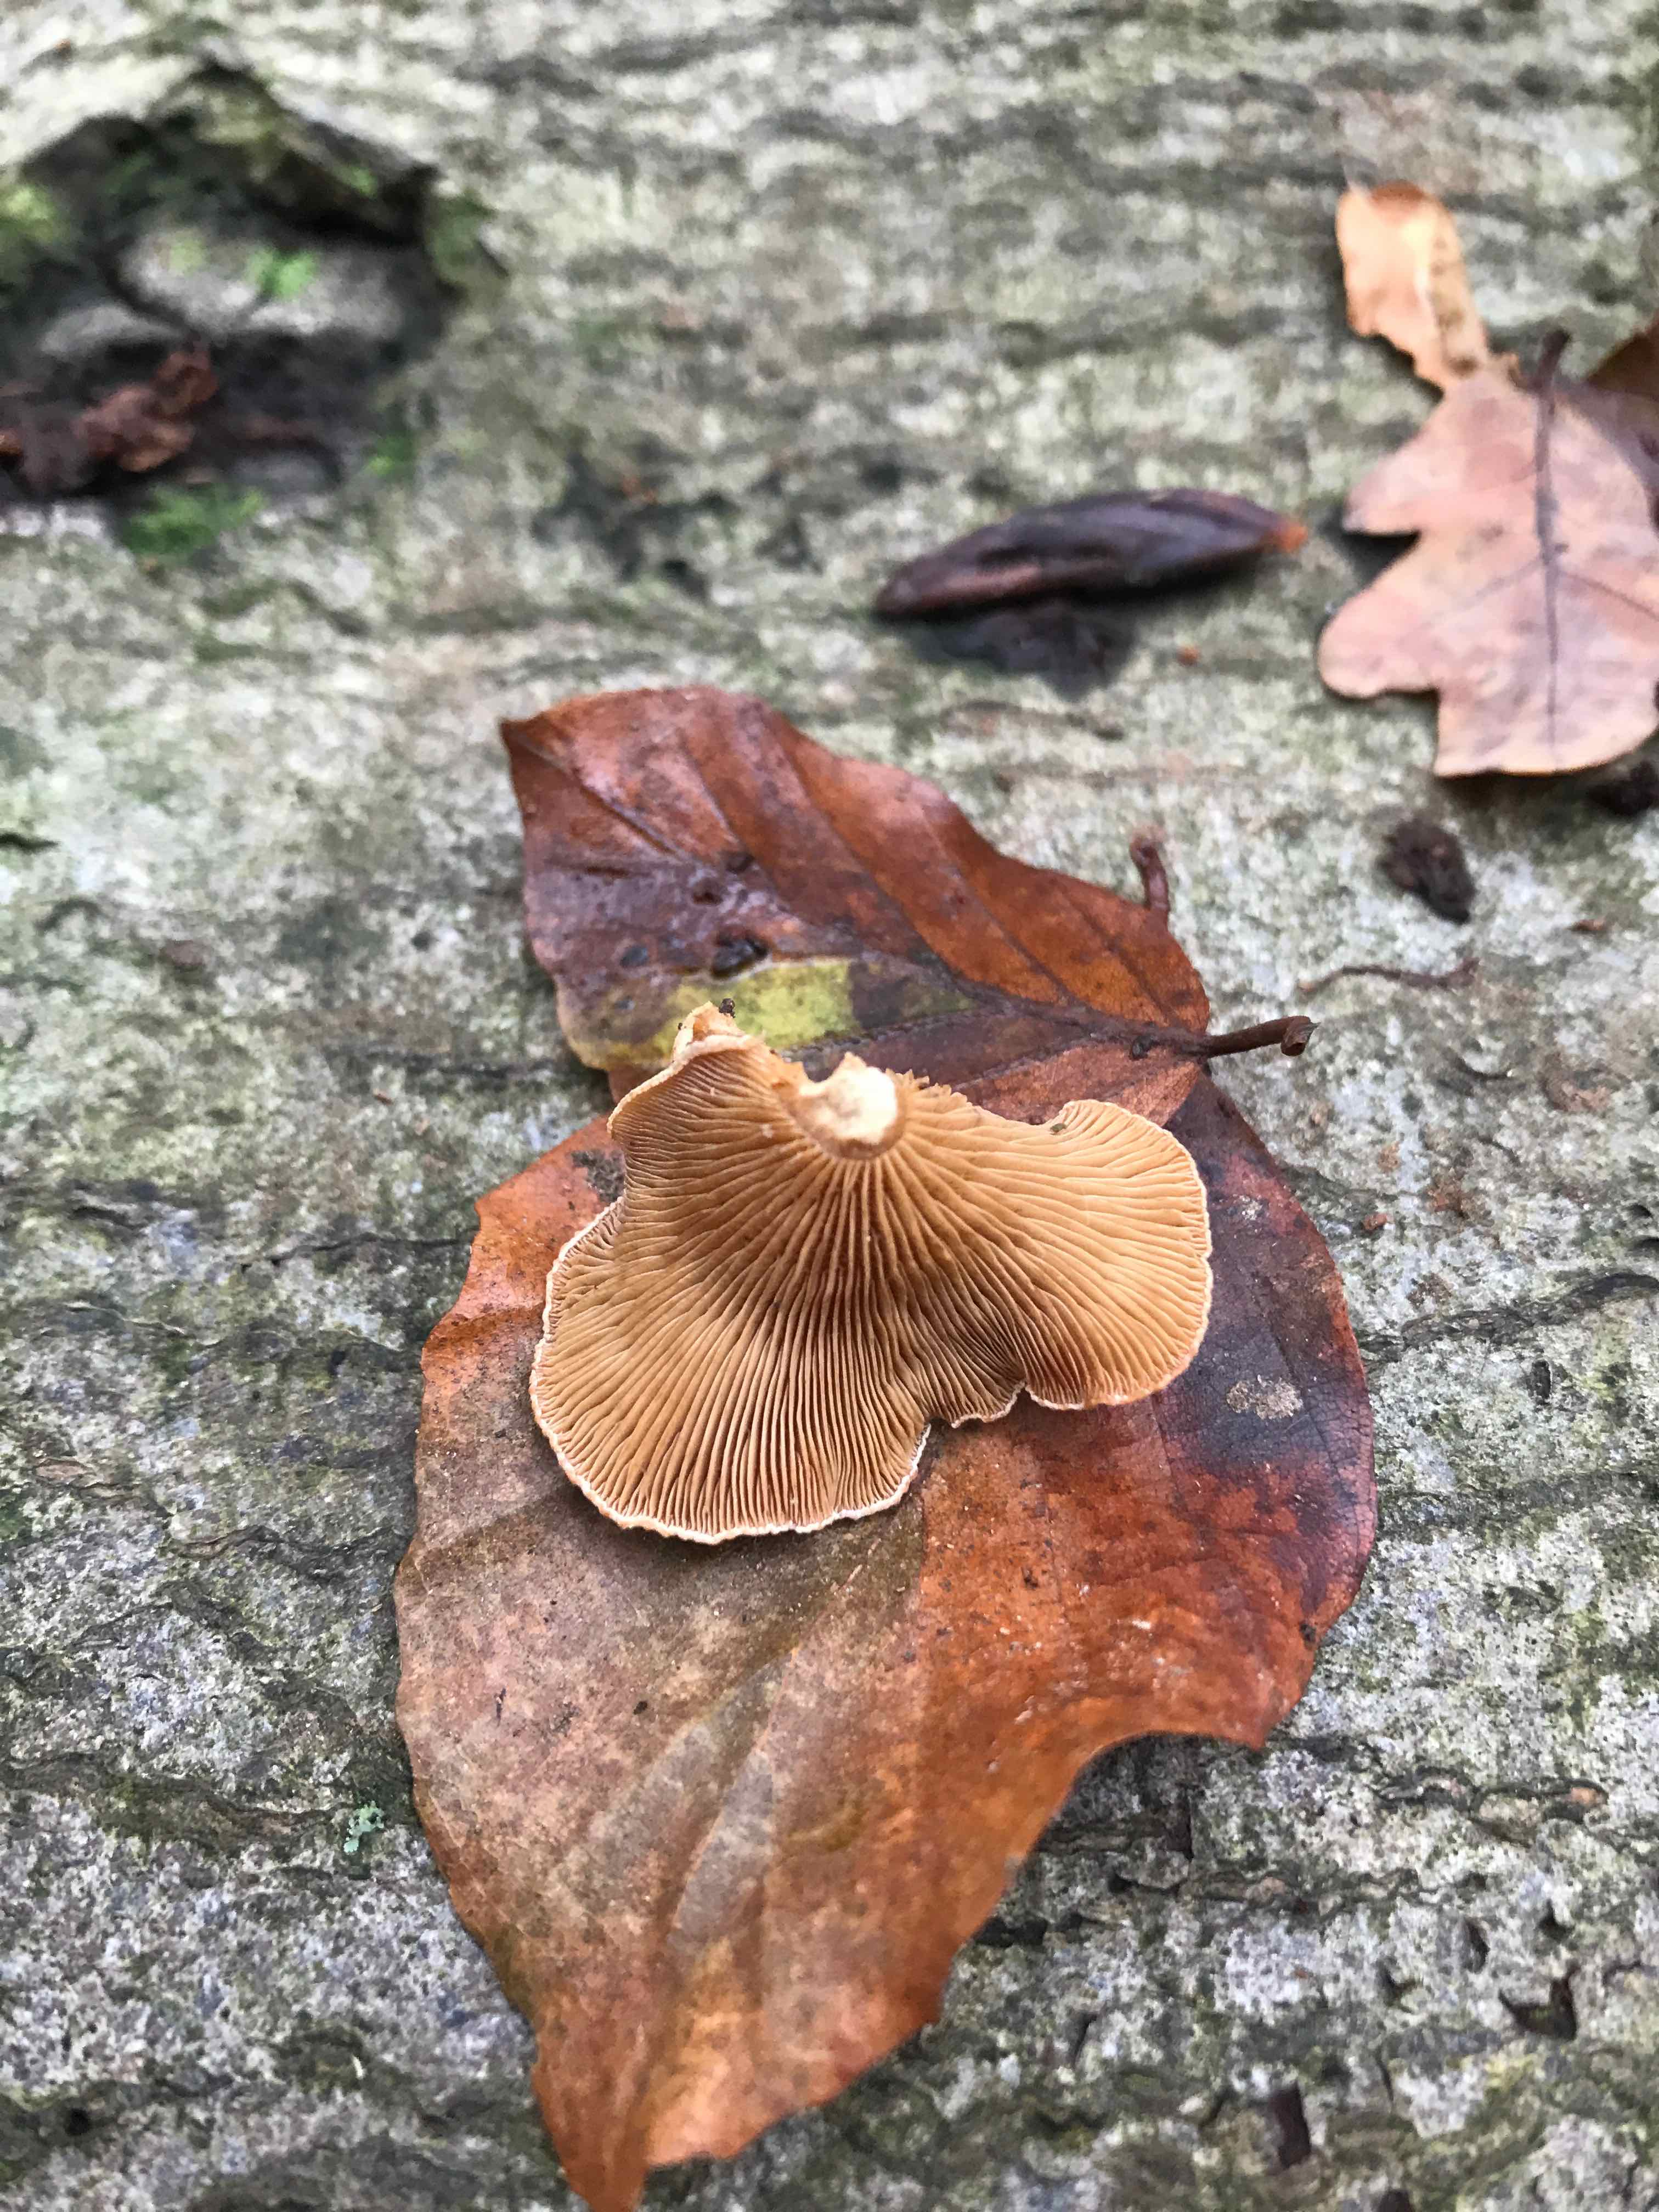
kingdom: Fungi
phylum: Basidiomycota
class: Agaricomycetes
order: Agaricales
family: Mycenaceae
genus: Panellus
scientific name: Panellus stipticus
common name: kliddet epaulethat
